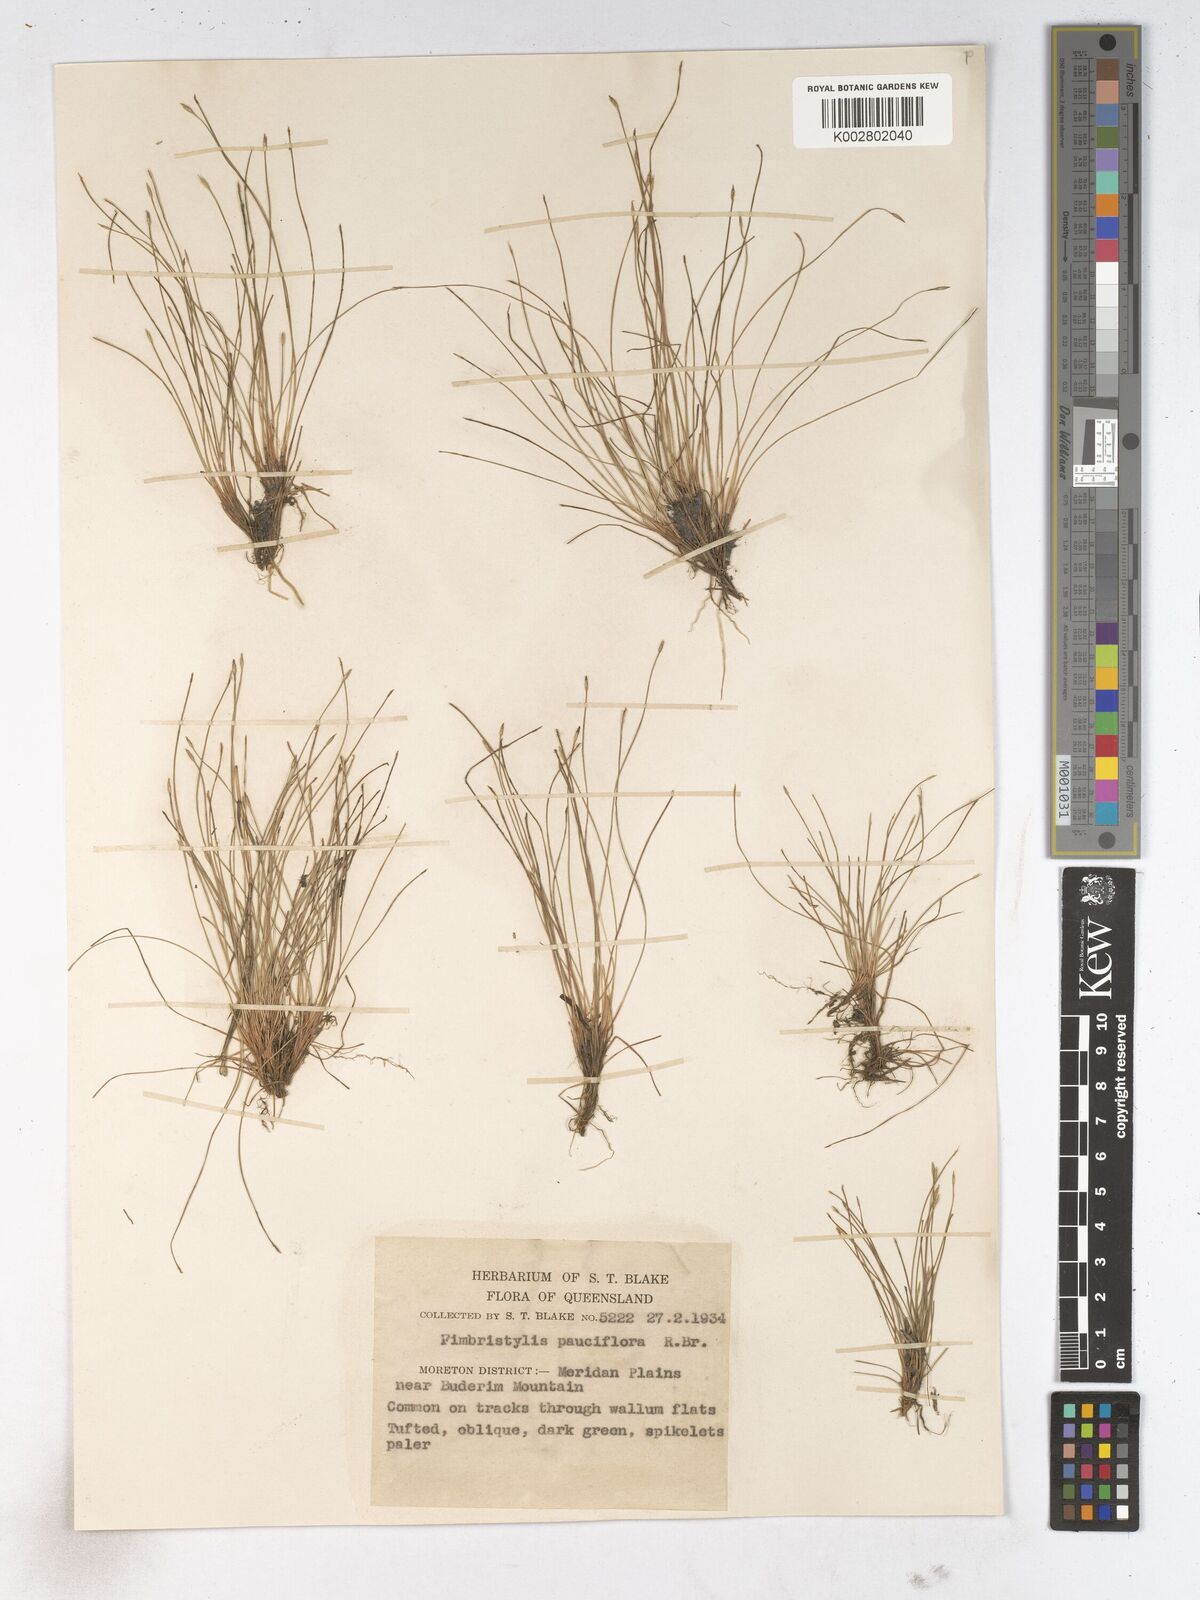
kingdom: Plantae
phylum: Tracheophyta
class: Liliopsida
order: Poales
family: Cyperaceae
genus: Fimbristylis
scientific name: Fimbristylis pauciflora
